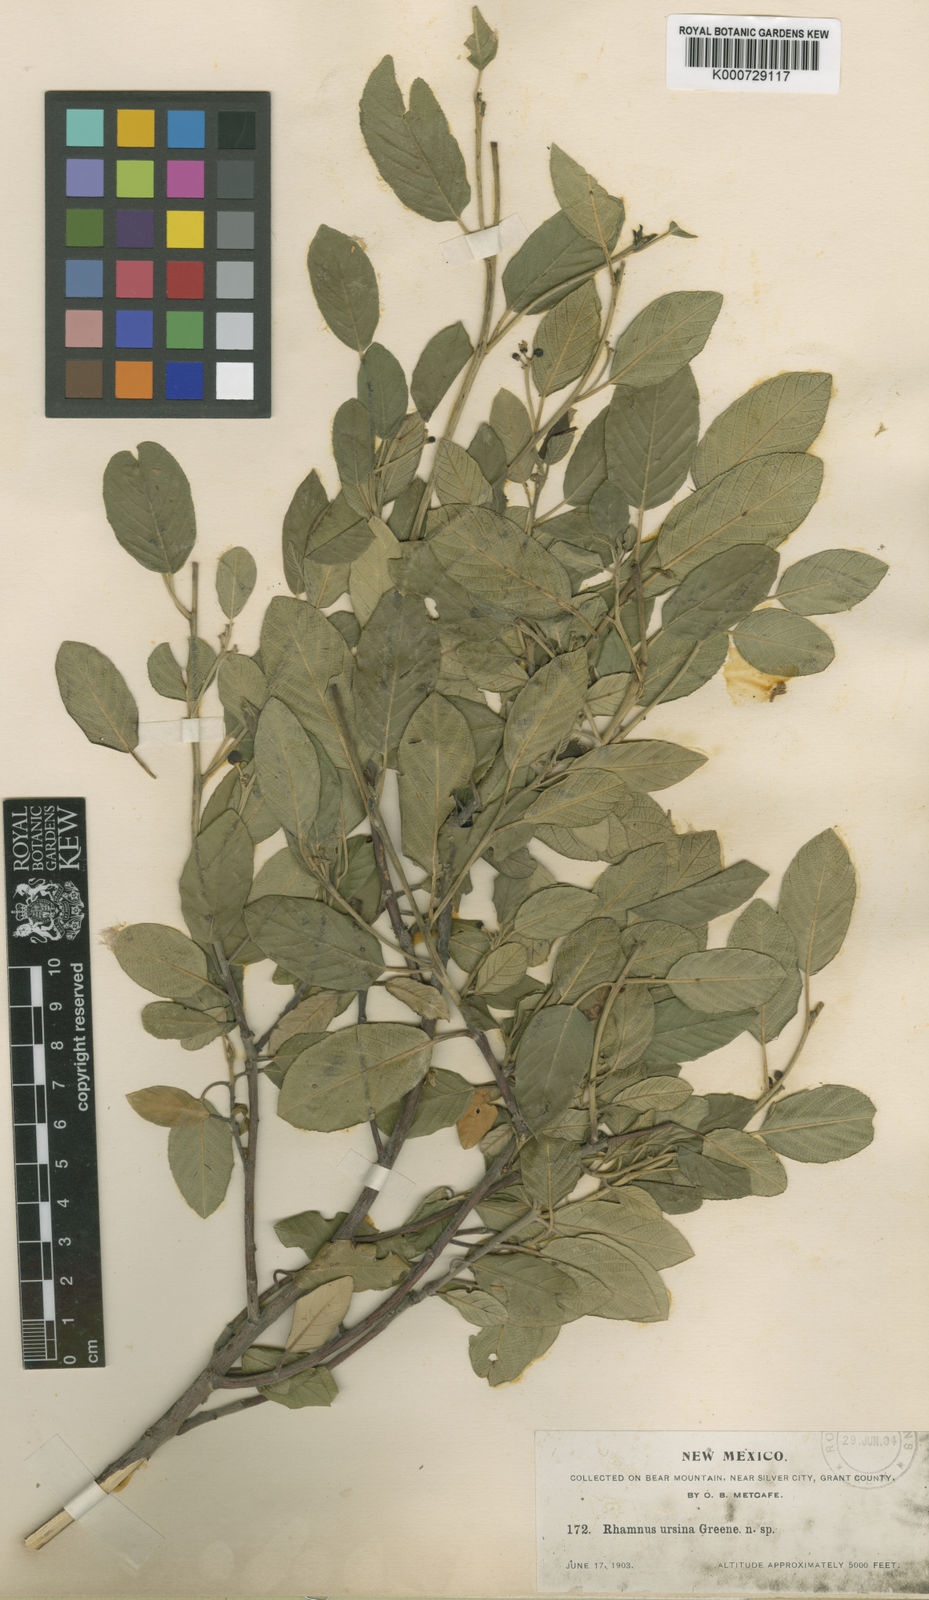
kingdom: Plantae
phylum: Tracheophyta
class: Magnoliopsida
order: Rosales
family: Rhamnaceae
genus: Frangula
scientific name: Frangula californica
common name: California buckthorn
